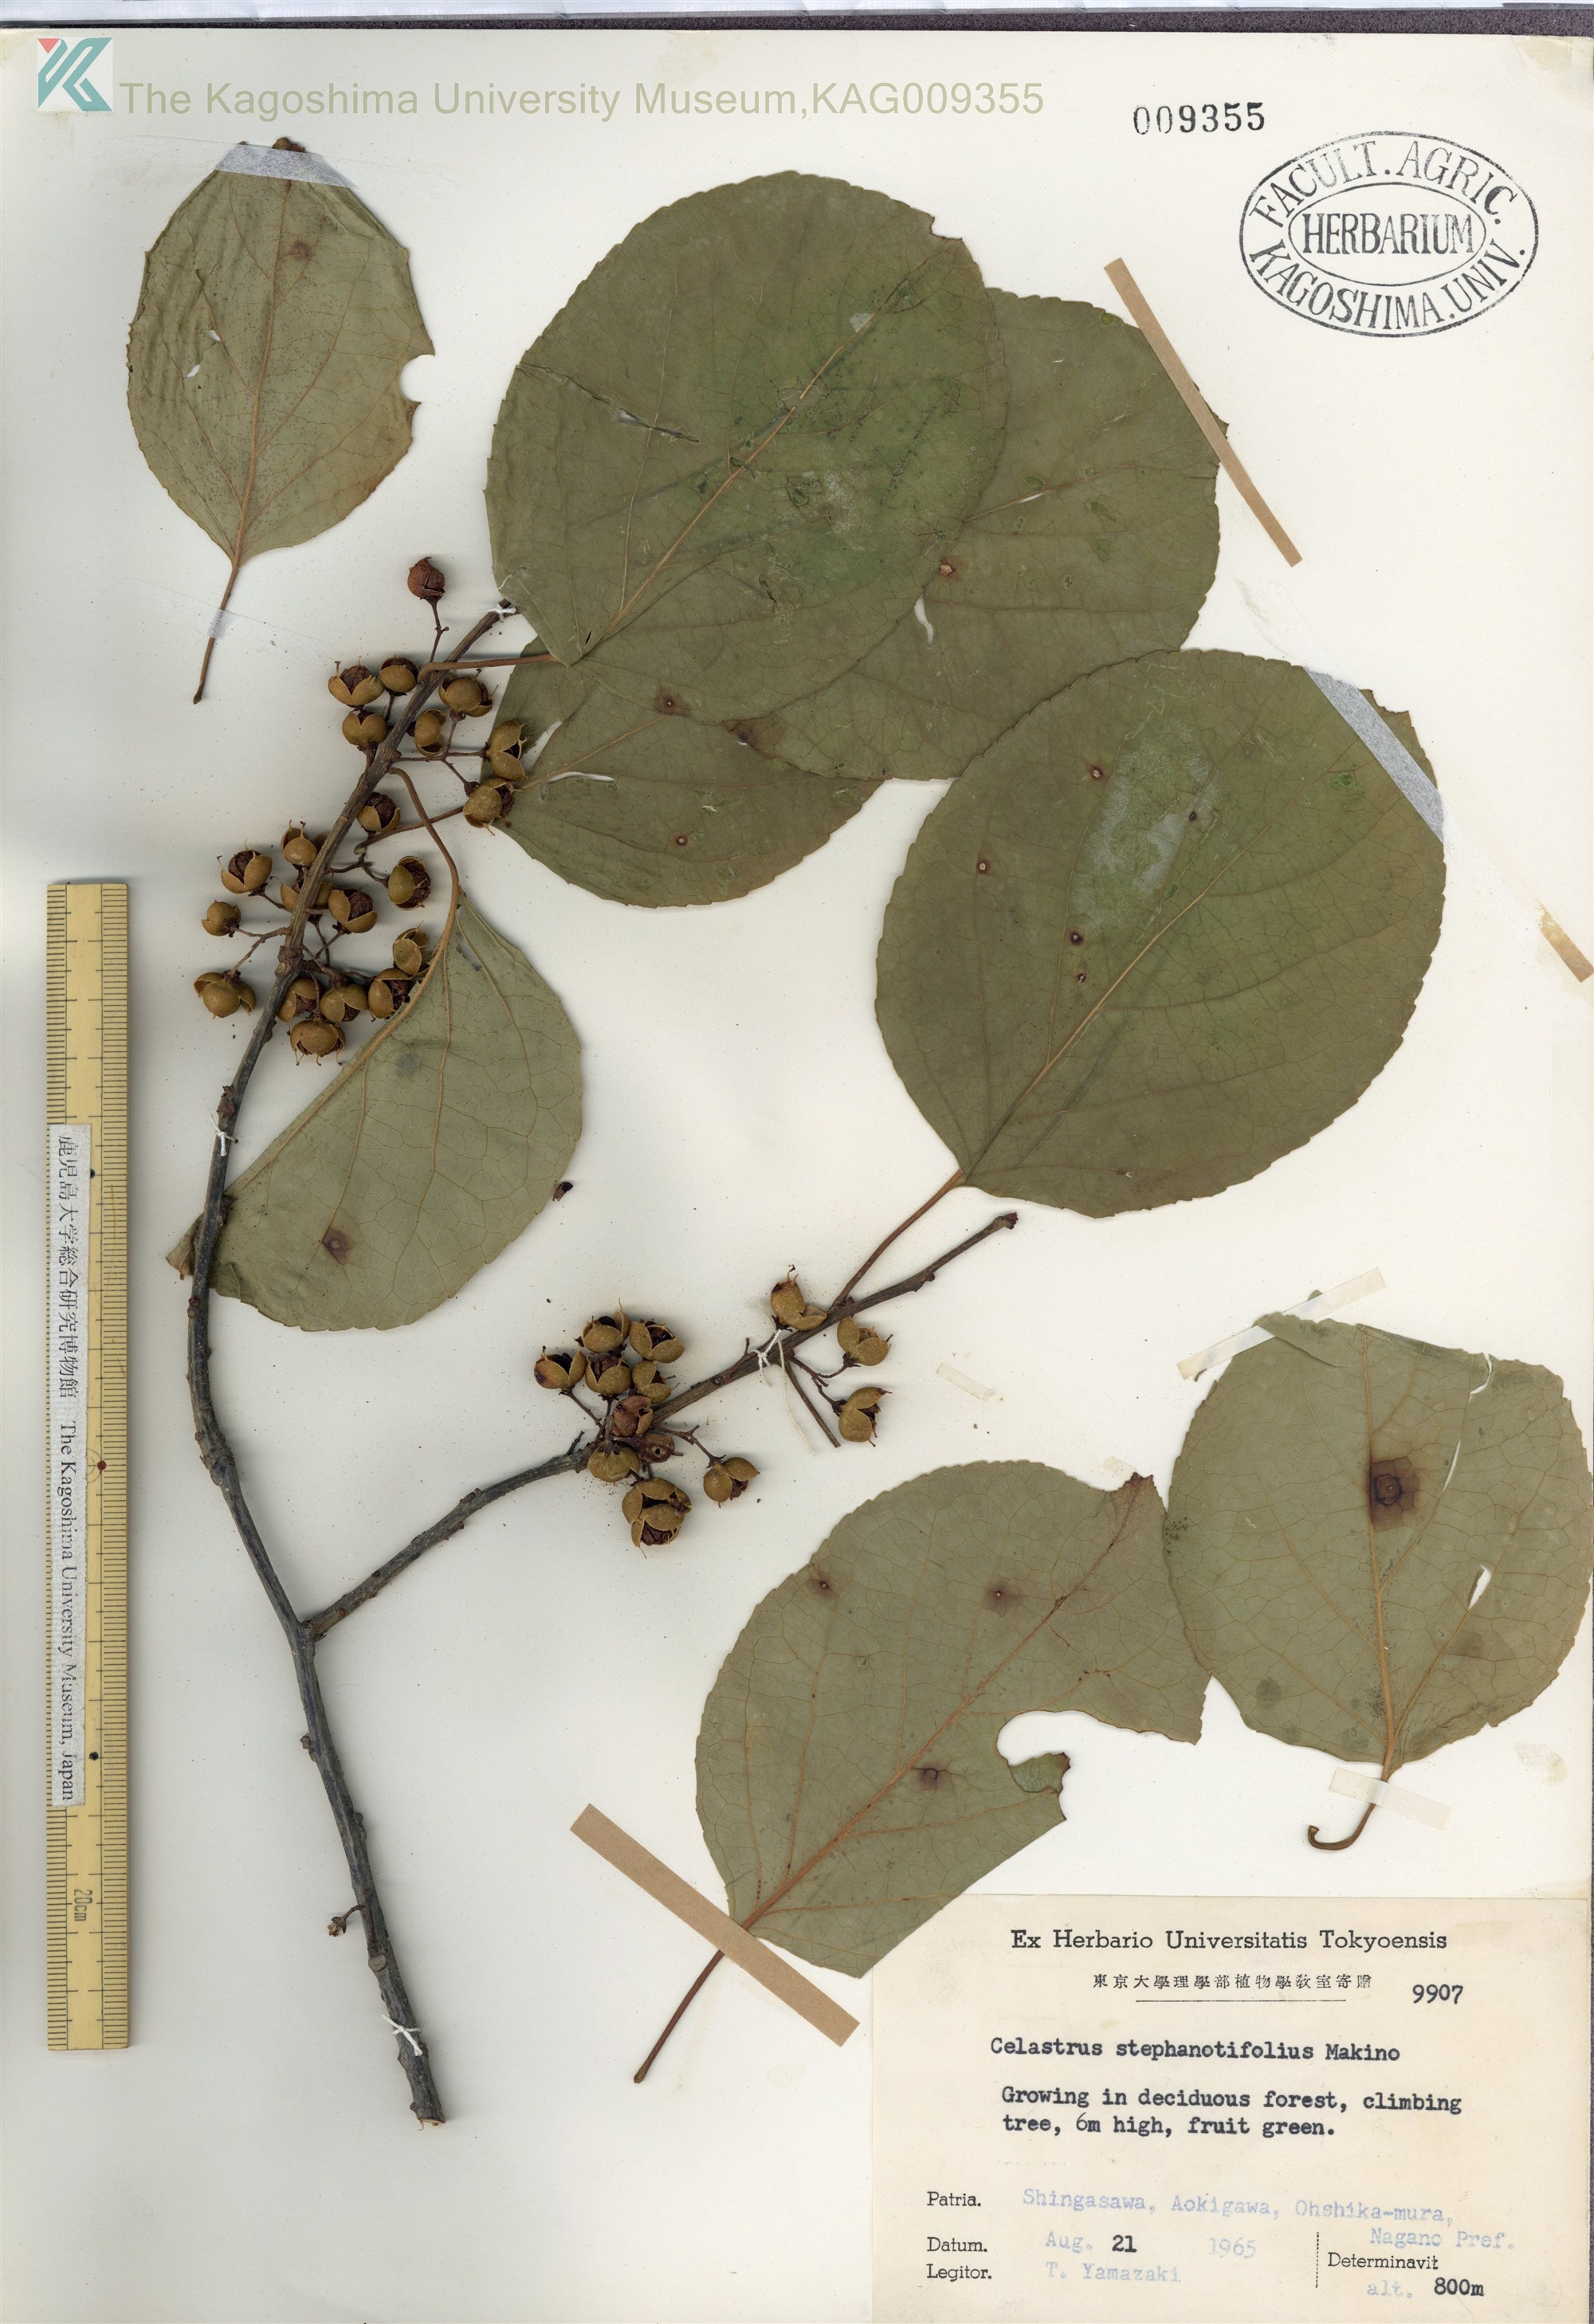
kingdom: Plantae
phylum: Tracheophyta
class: Magnoliopsida
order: Celastrales
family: Celastraceae
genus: Celastrus
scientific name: Celastrus stephanotifolius
